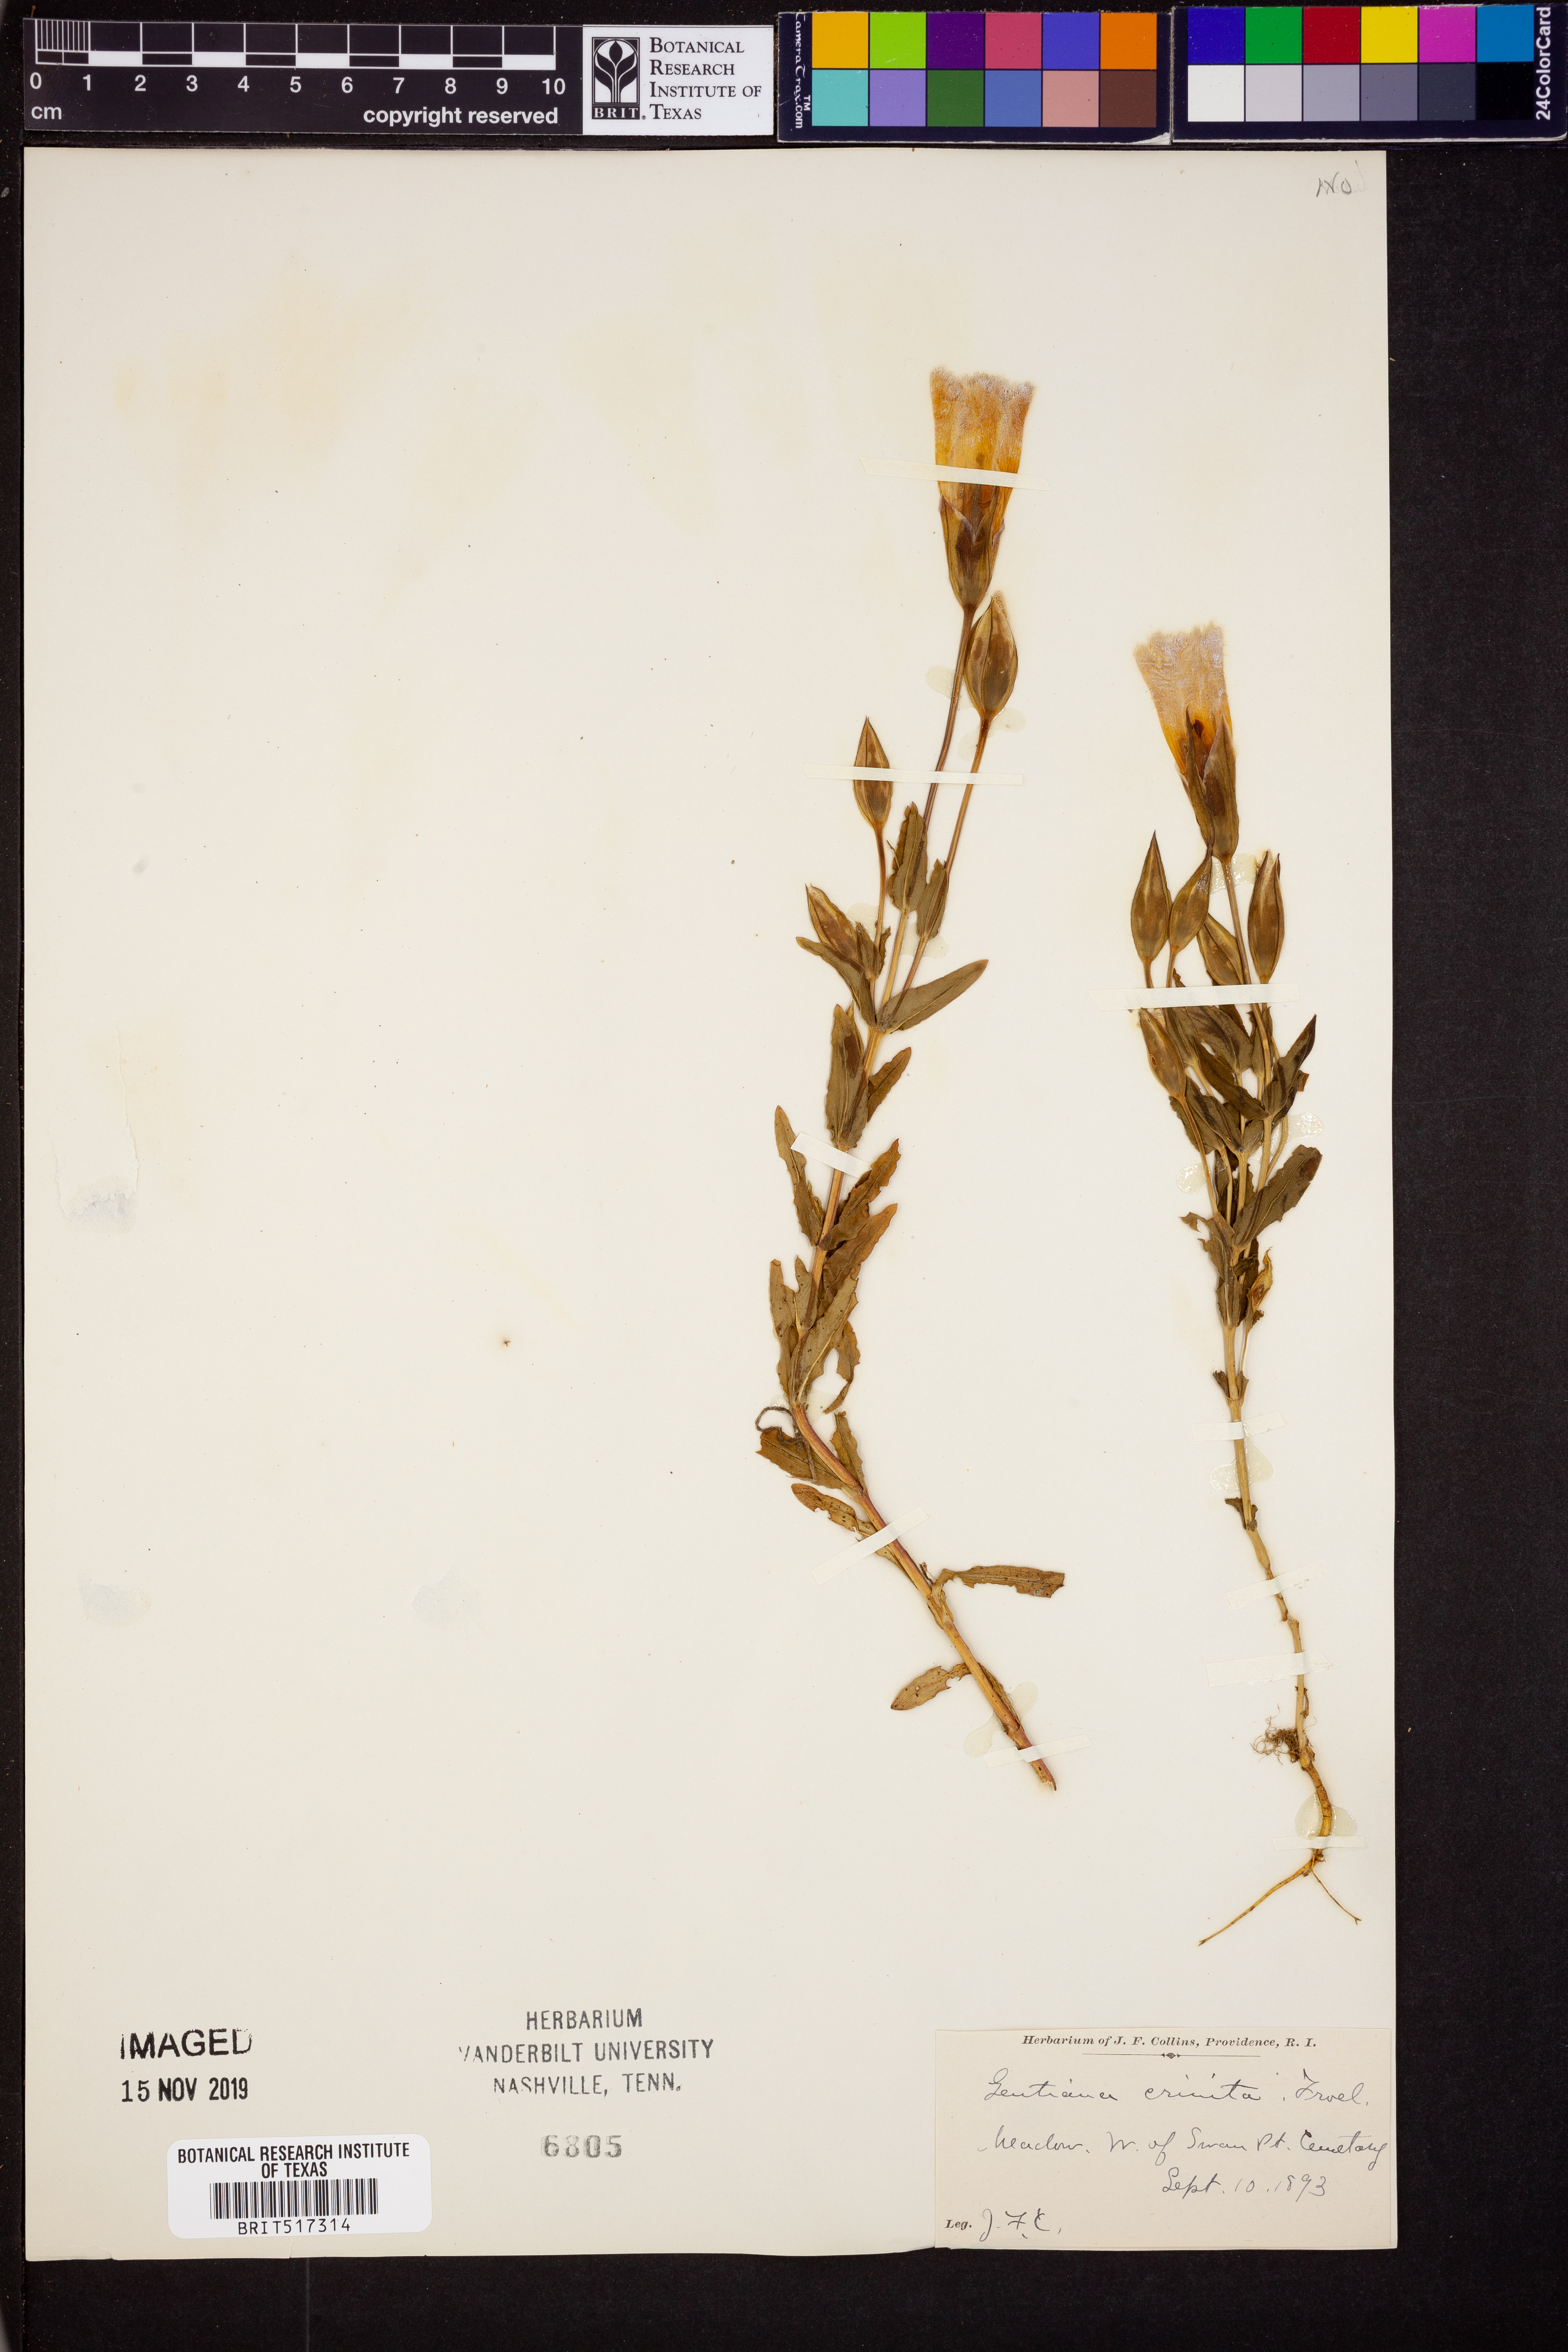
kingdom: Plantae
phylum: Tracheophyta
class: Magnoliopsida
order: Gentianales
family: Gentianaceae
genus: Gentianopsis
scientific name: Gentianopsis crinita
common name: Fringed-gentian
